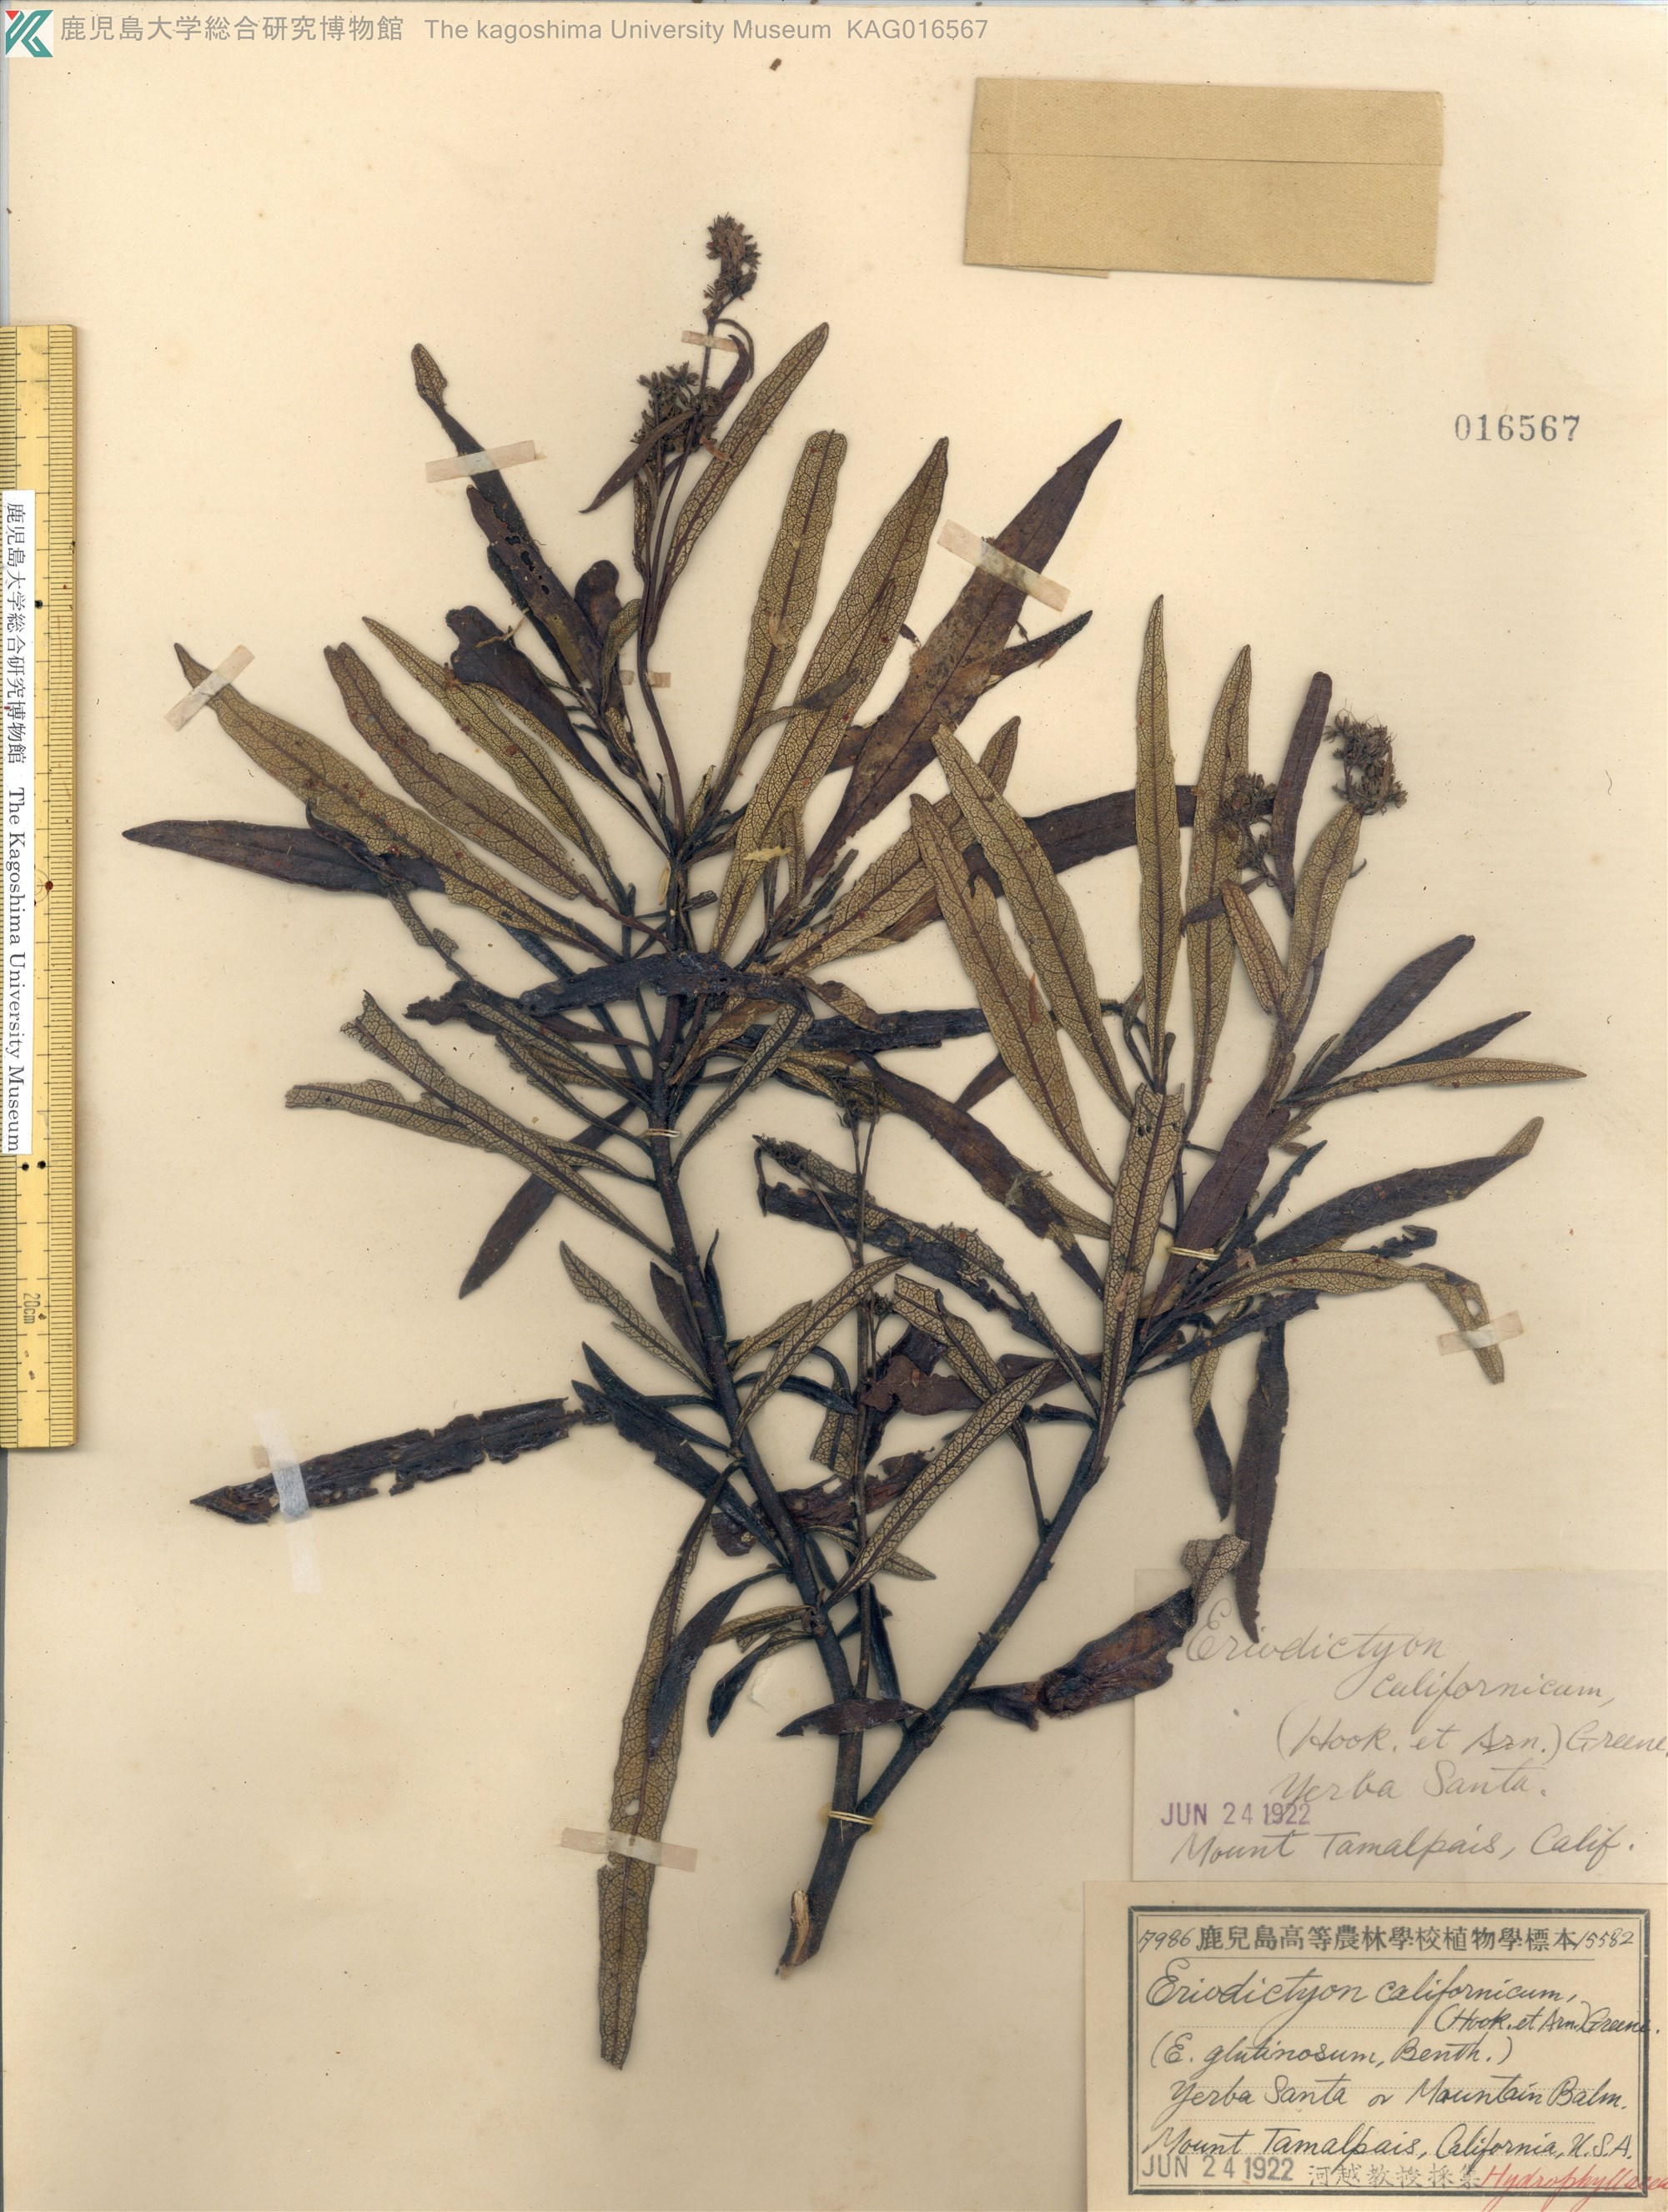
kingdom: Plantae
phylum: Tracheophyta
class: Magnoliopsida
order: Boraginales
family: Namaceae
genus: Eriodictyon
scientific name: Eriodictyon crassifolium
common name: Thick-leaf yerba-santa
